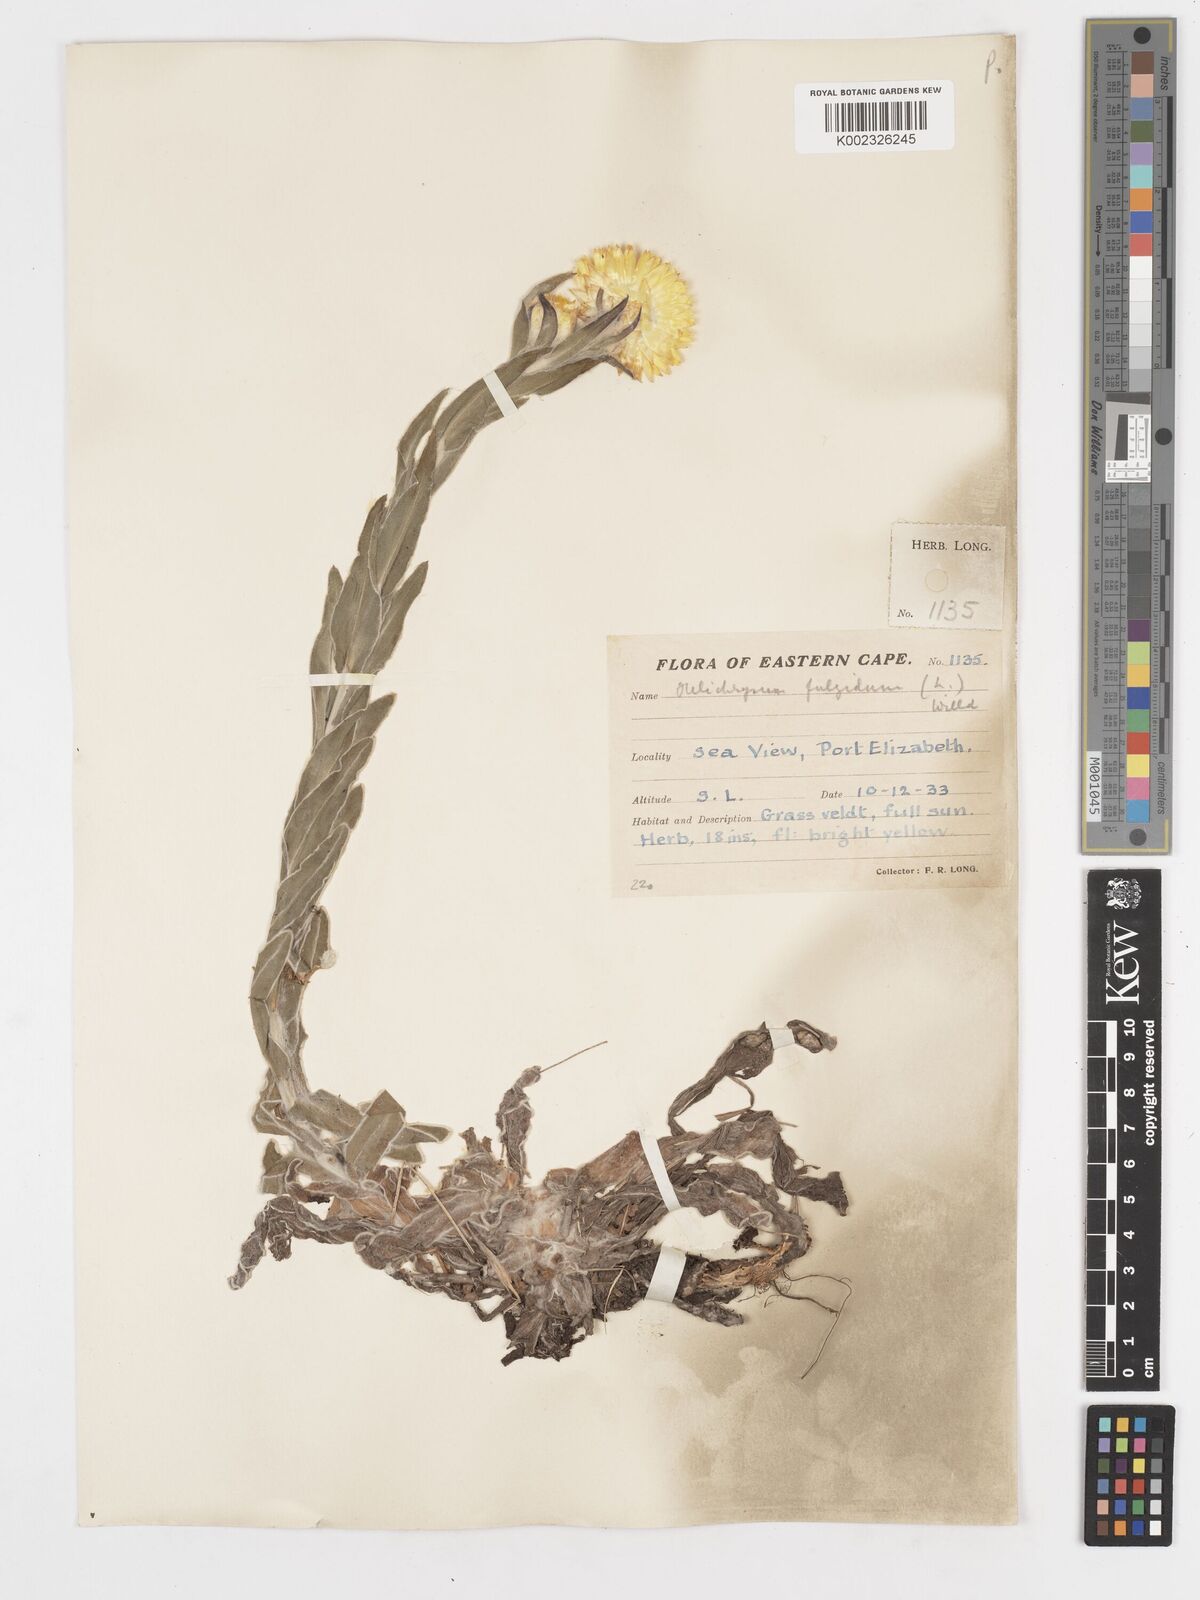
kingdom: Plantae
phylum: Tracheophyta
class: Magnoliopsida
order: Asterales
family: Asteraceae
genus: Helichrysum
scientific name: Helichrysum aureum
